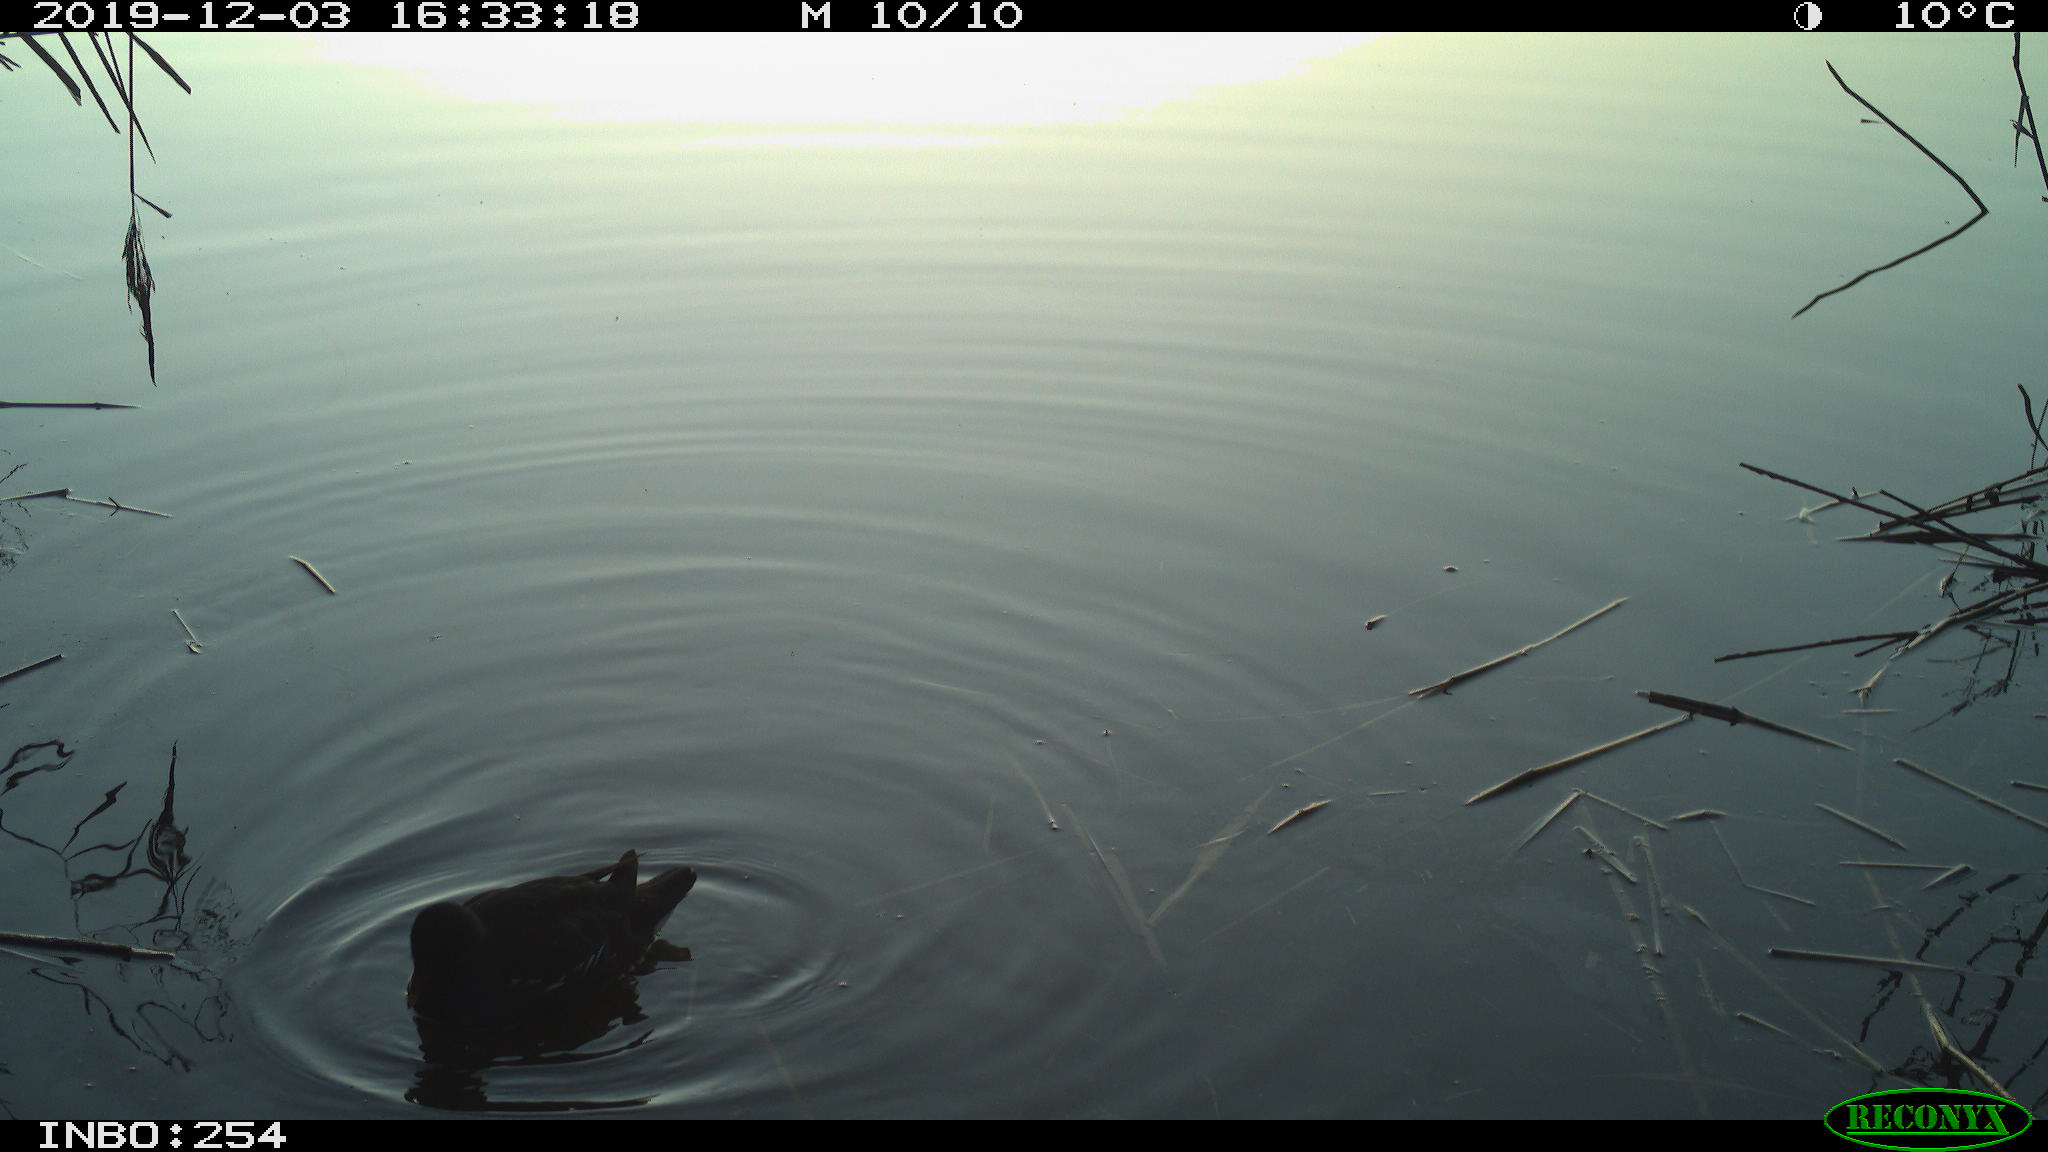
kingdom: Animalia
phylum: Chordata
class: Aves
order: Gruiformes
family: Rallidae
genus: Gallinula
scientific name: Gallinula chloropus
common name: Common moorhen
